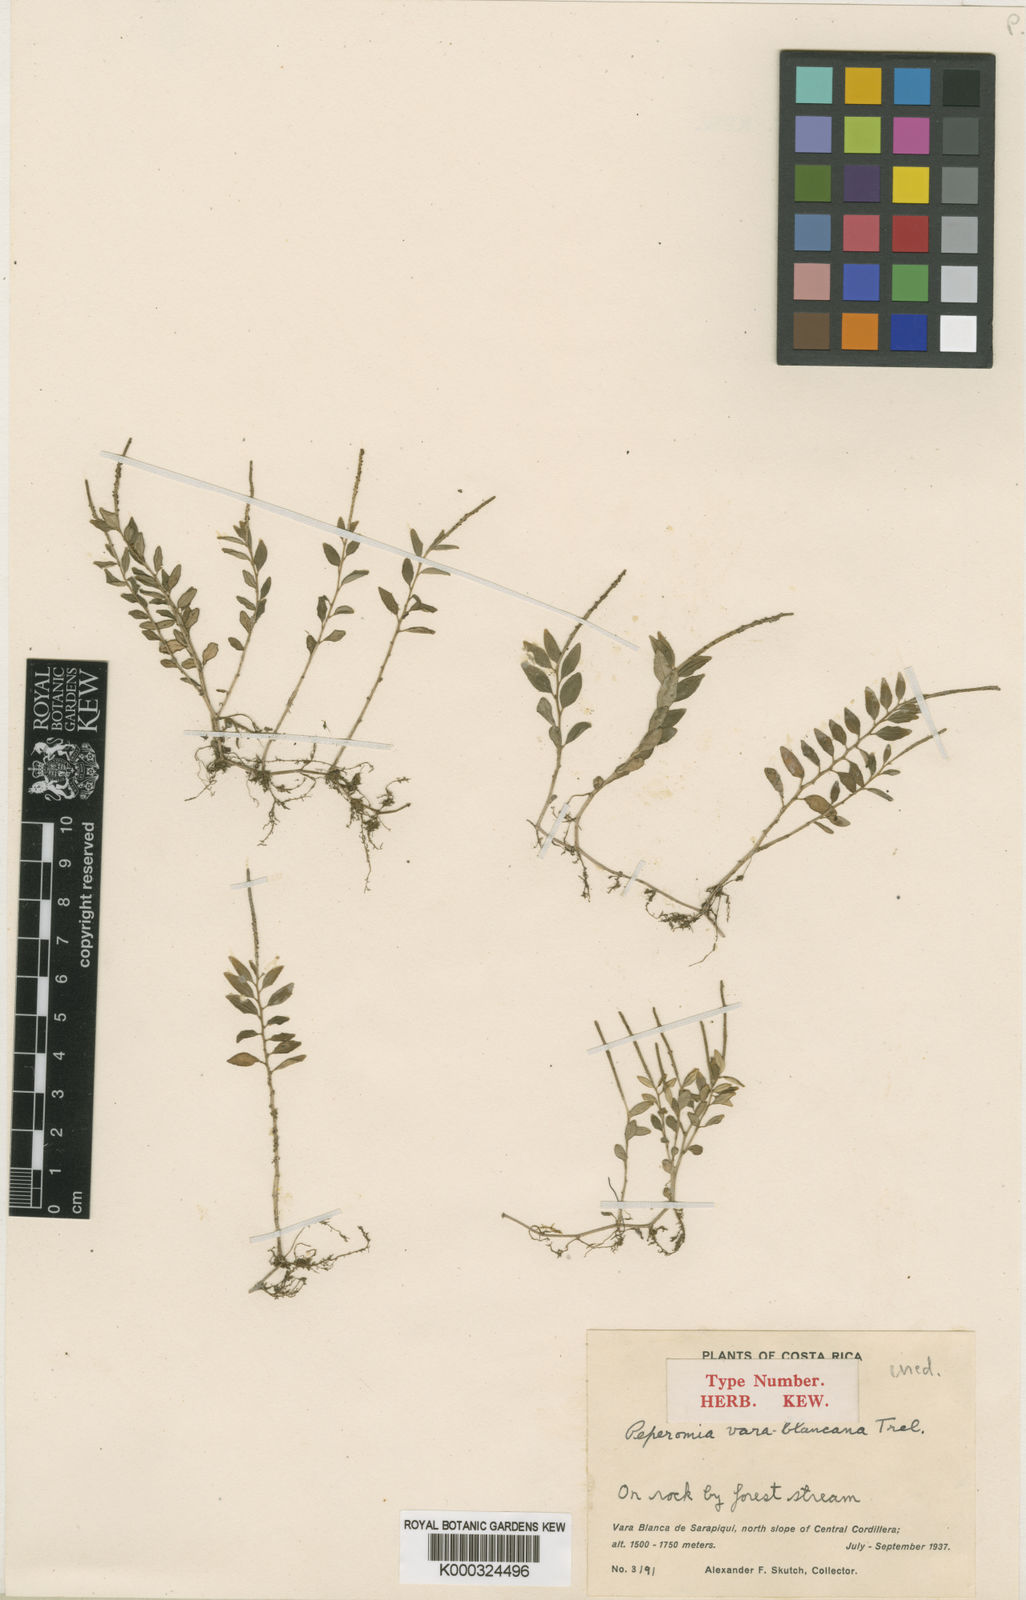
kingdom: Plantae
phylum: Tracheophyta
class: Magnoliopsida
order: Piperales
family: Piperaceae
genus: Peperomia
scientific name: Peperomia
